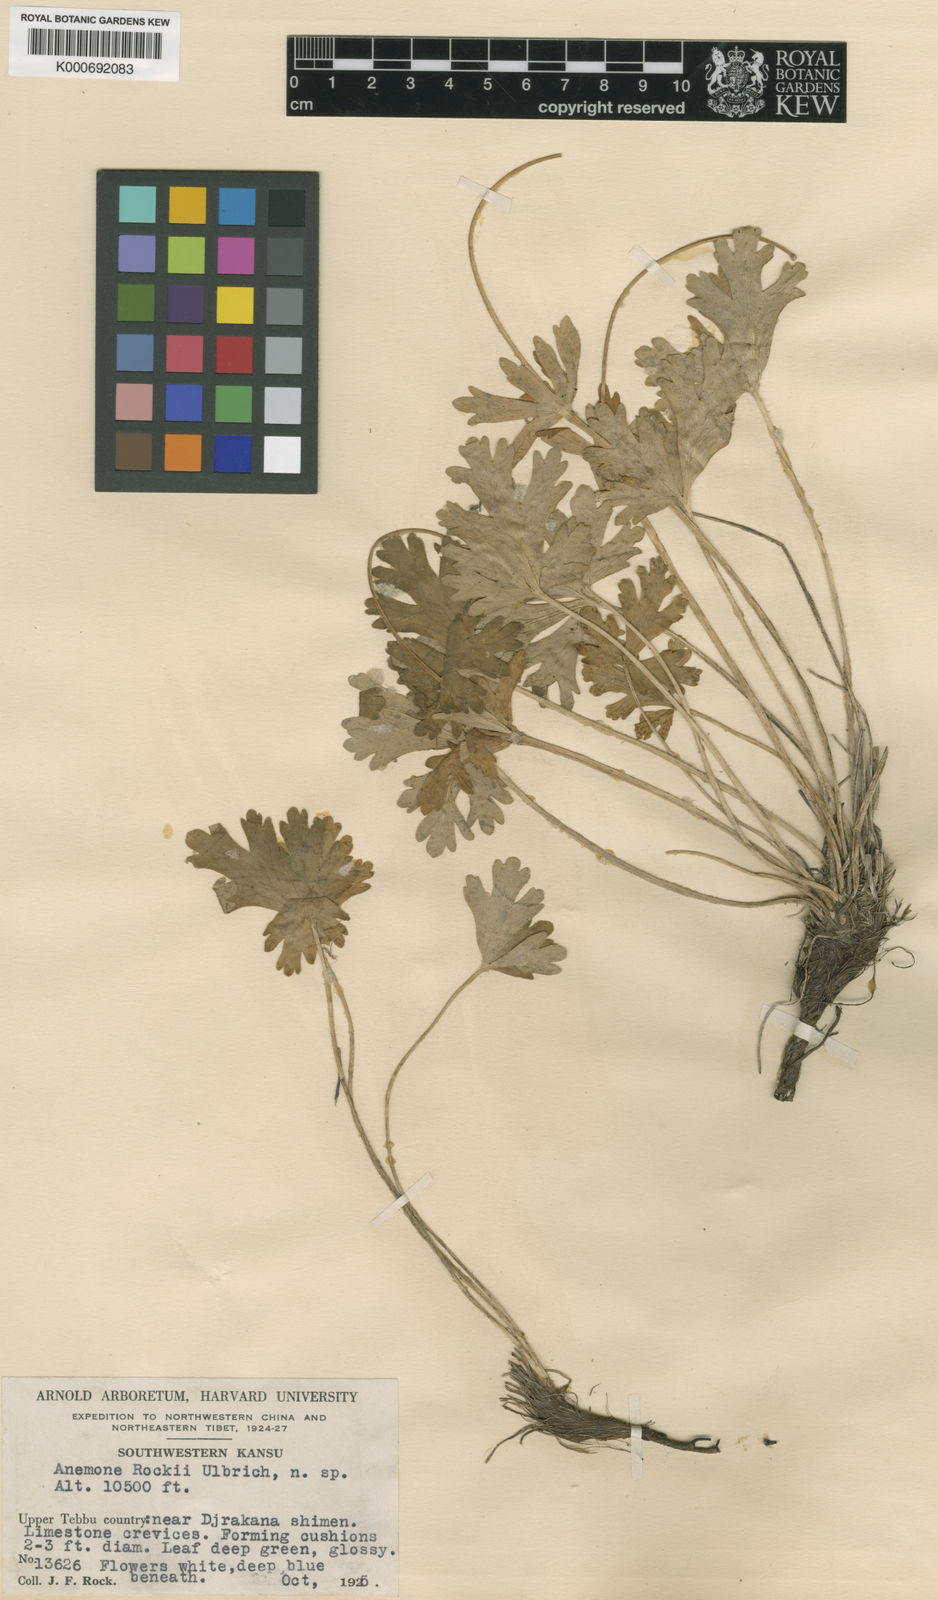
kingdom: Plantae
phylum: Tracheophyta
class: Magnoliopsida
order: Ranunculales
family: Ranunculaceae
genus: Anemonastrum
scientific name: Anemonastrum rockii
